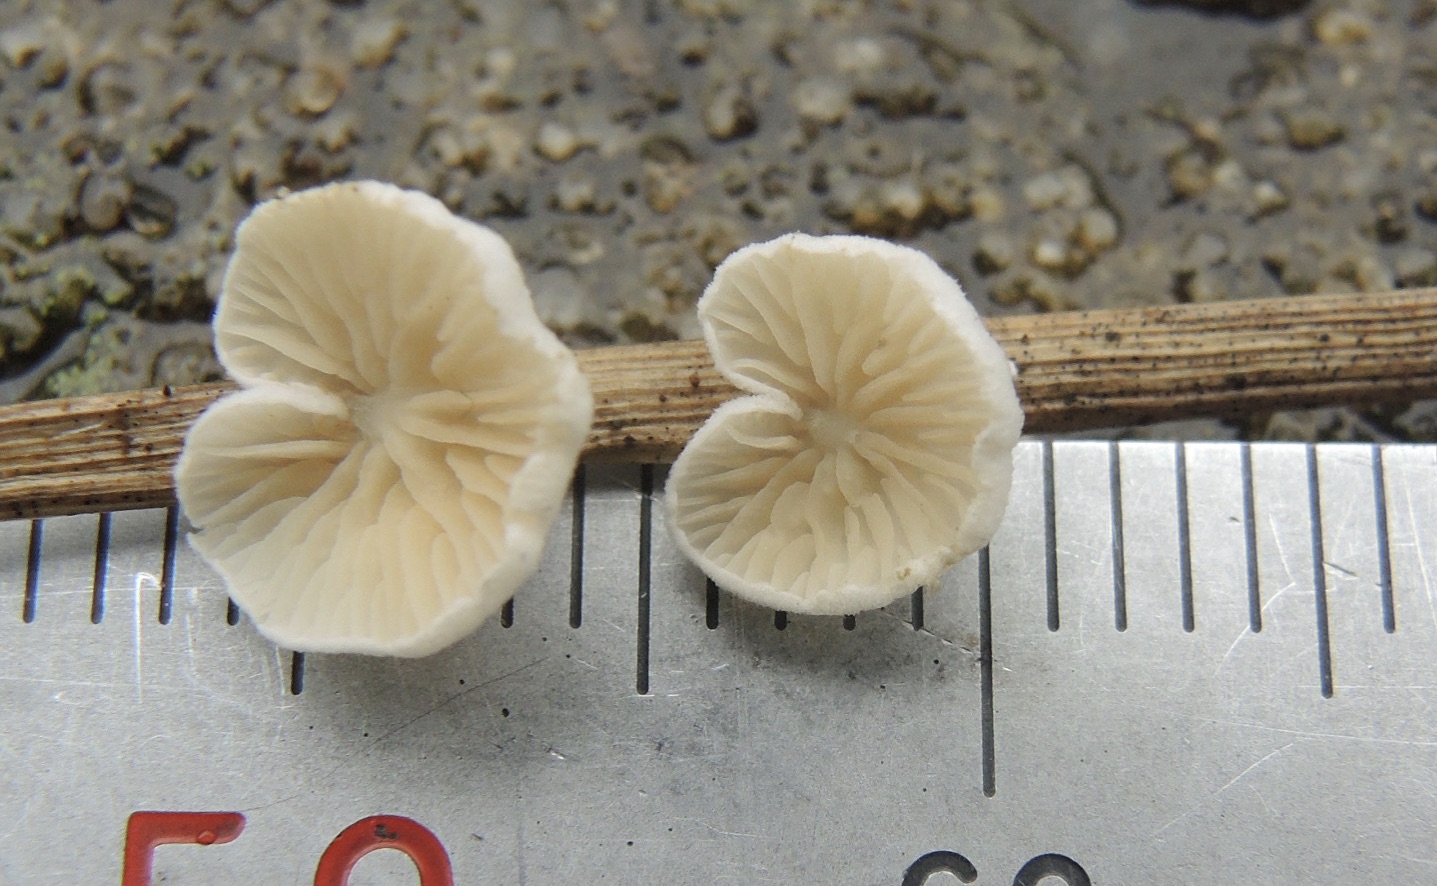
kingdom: Fungi
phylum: Basidiomycota
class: Agaricomycetes
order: Agaricales
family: Crepidotaceae
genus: Crepidotus
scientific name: Crepidotus epibryus
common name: førne-muslingesvamp
